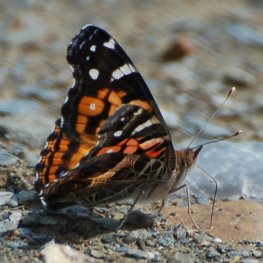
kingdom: Animalia
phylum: Arthropoda
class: Insecta
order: Lepidoptera
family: Nymphalidae
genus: Vanessa
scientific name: Vanessa virginiensis
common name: American Lady
